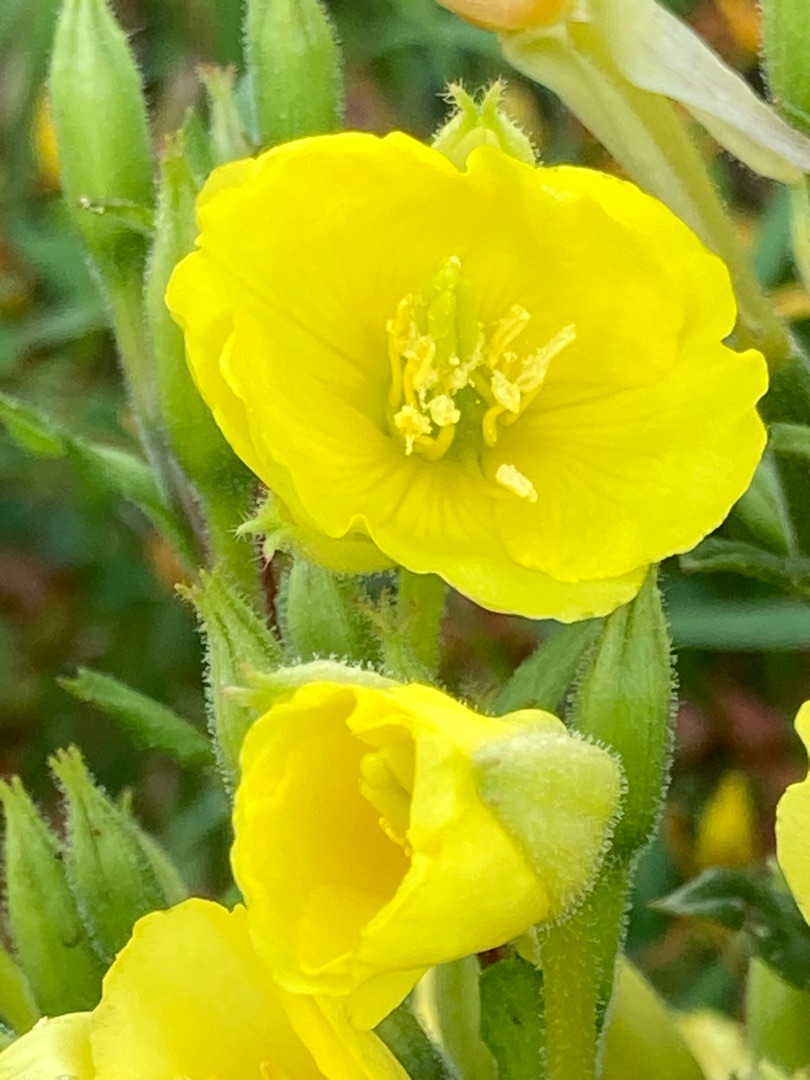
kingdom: Plantae
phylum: Tracheophyta
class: Magnoliopsida
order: Myrtales
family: Onagraceae
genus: Oenothera
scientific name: Oenothera biennis
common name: Rødfrugtet natlys
